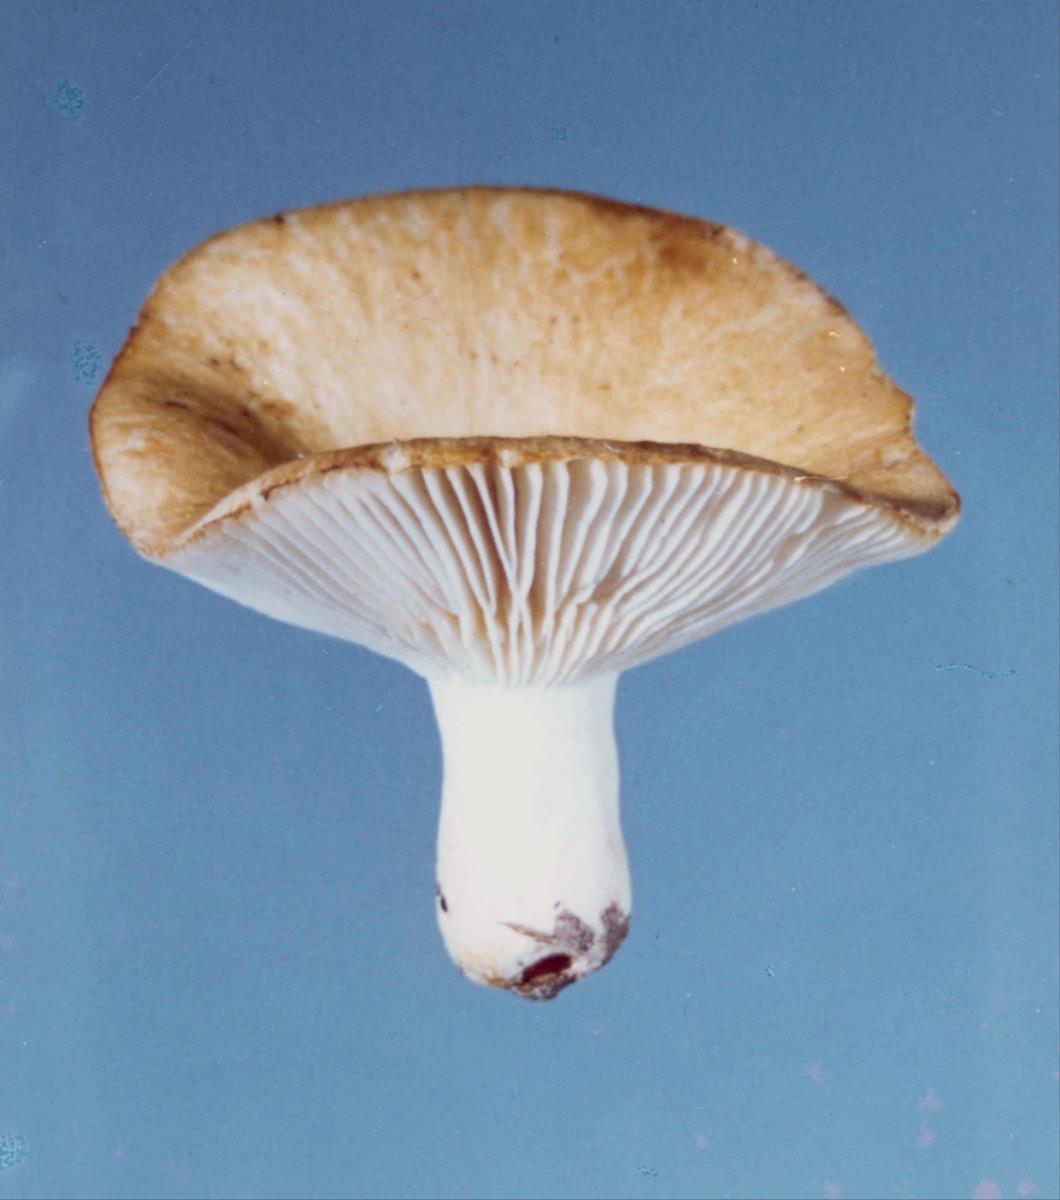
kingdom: Fungi
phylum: Basidiomycota
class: Agaricomycetes
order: Russulales
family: Russulaceae
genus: Russula
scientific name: Russula cremeo-ochracea
